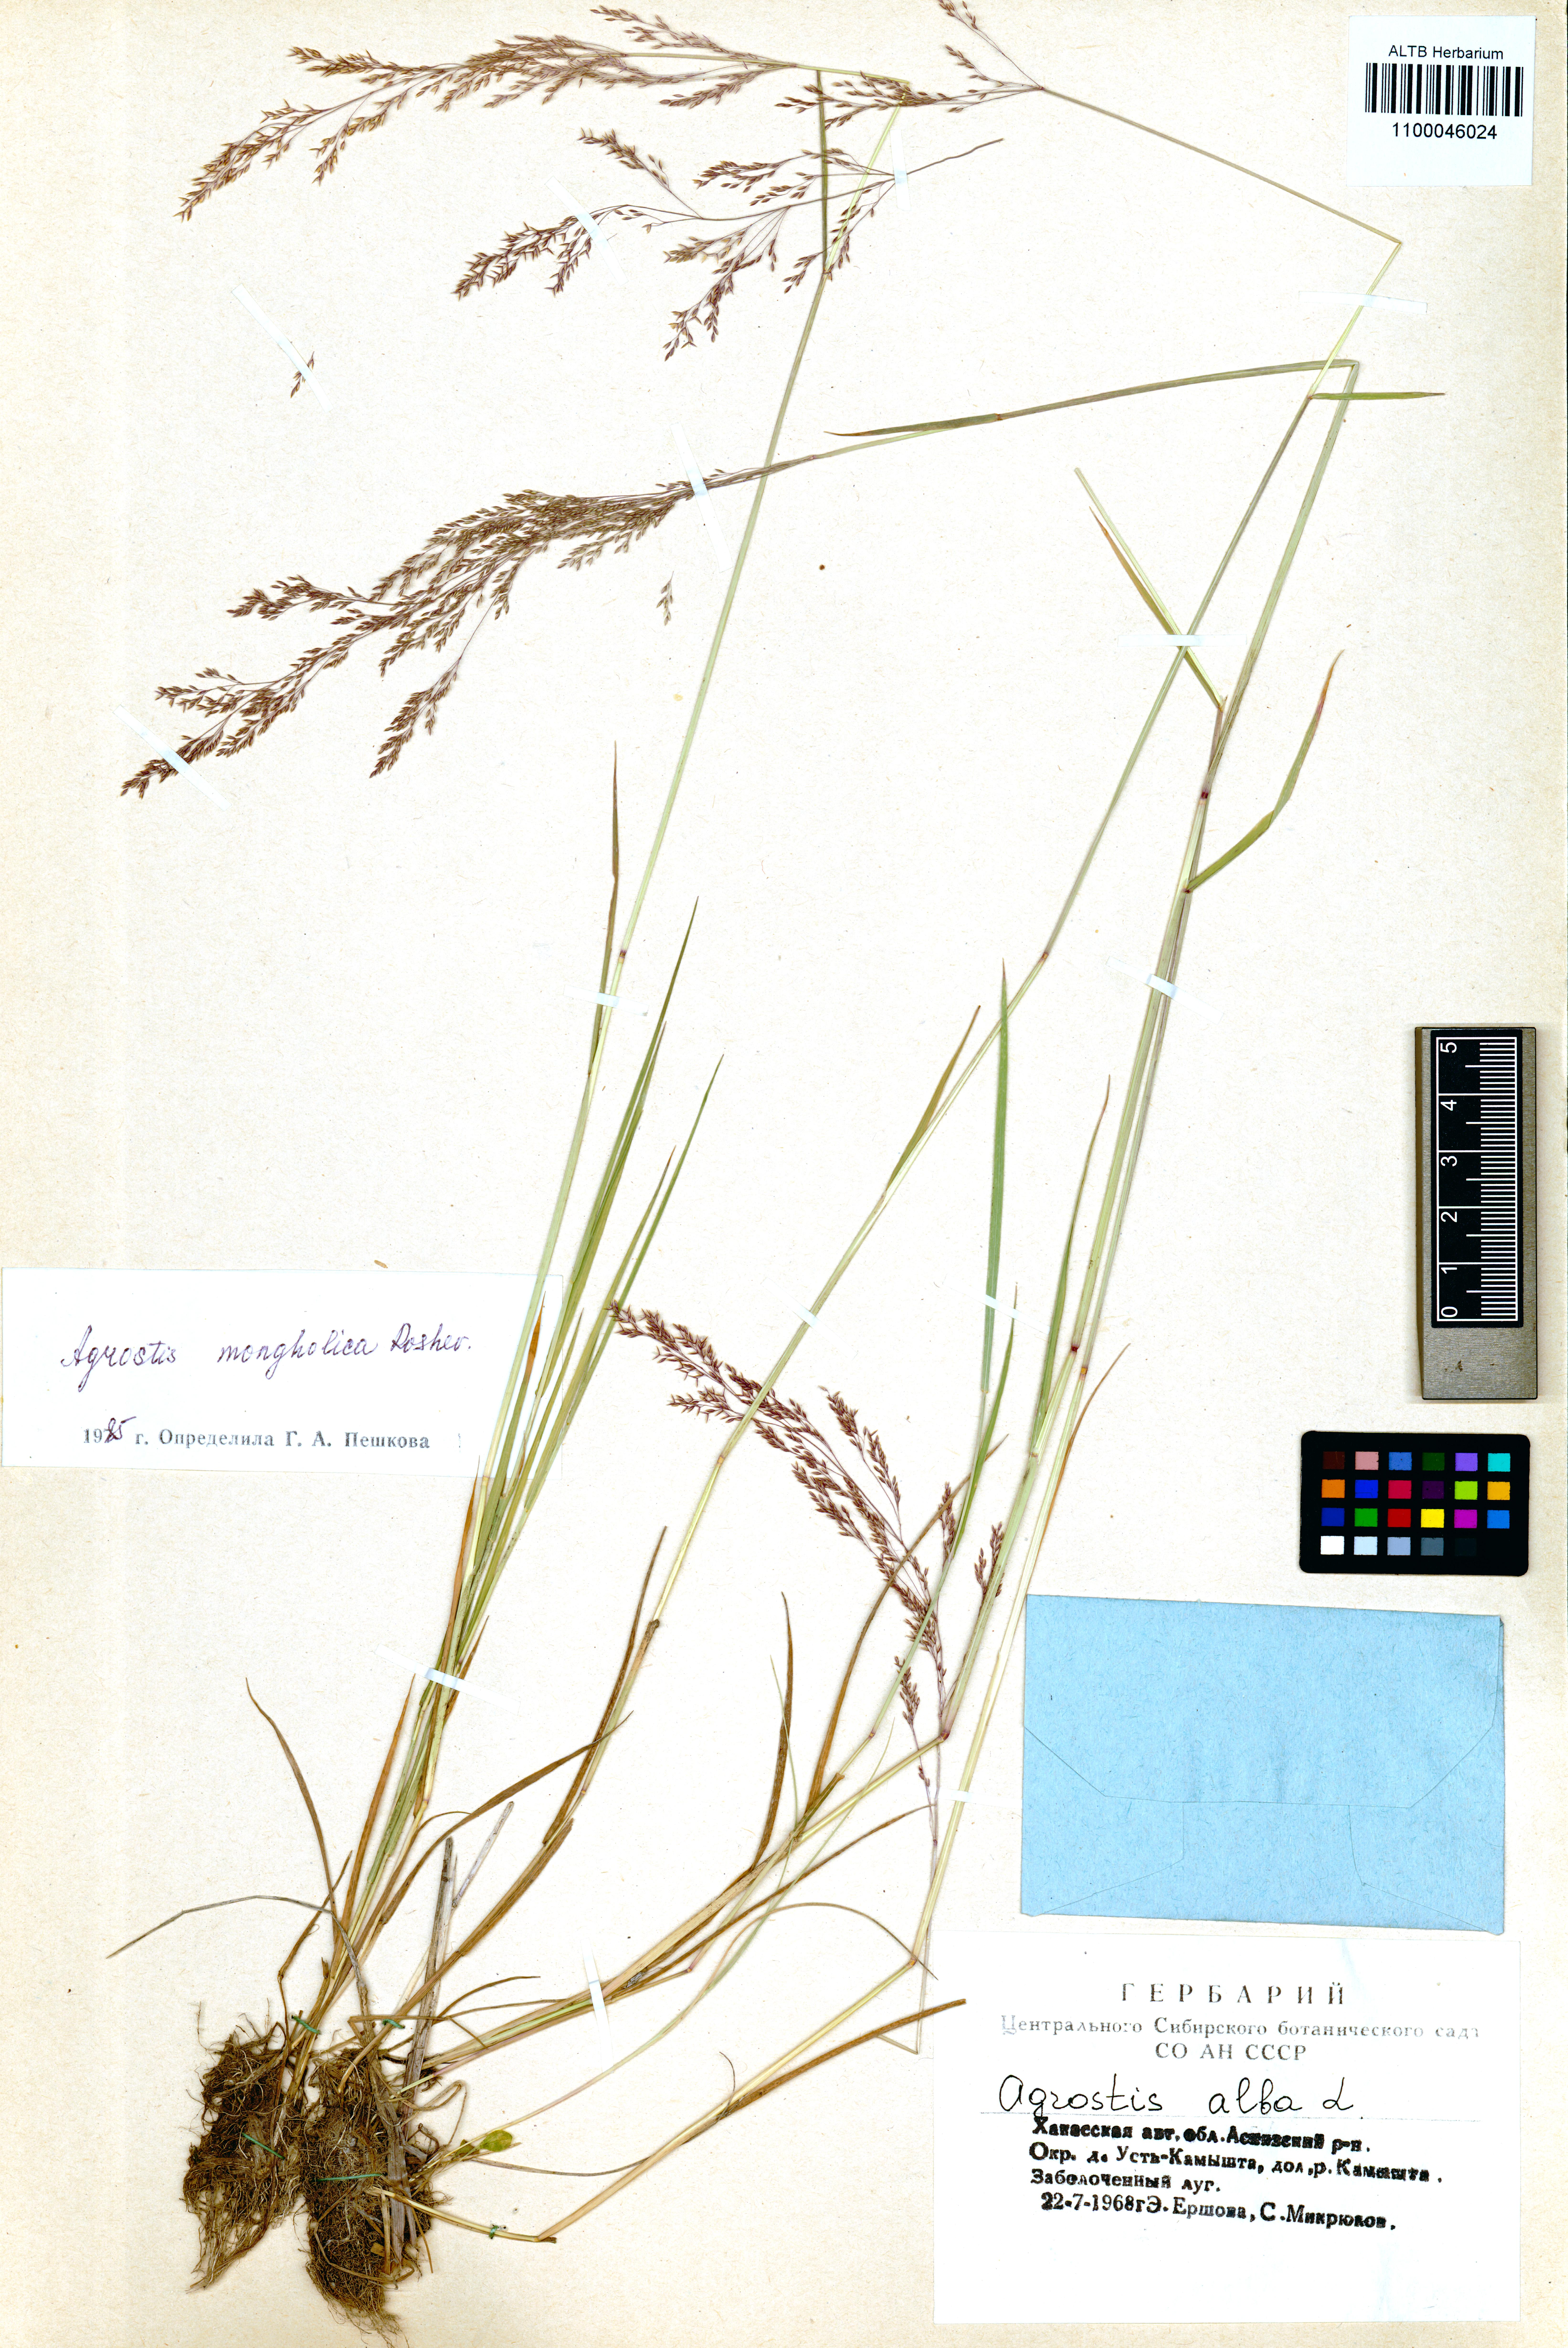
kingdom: Plantae
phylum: Tracheophyta
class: Liliopsida
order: Poales
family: Poaceae
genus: Agrostis
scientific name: Agrostis divaricatissima
